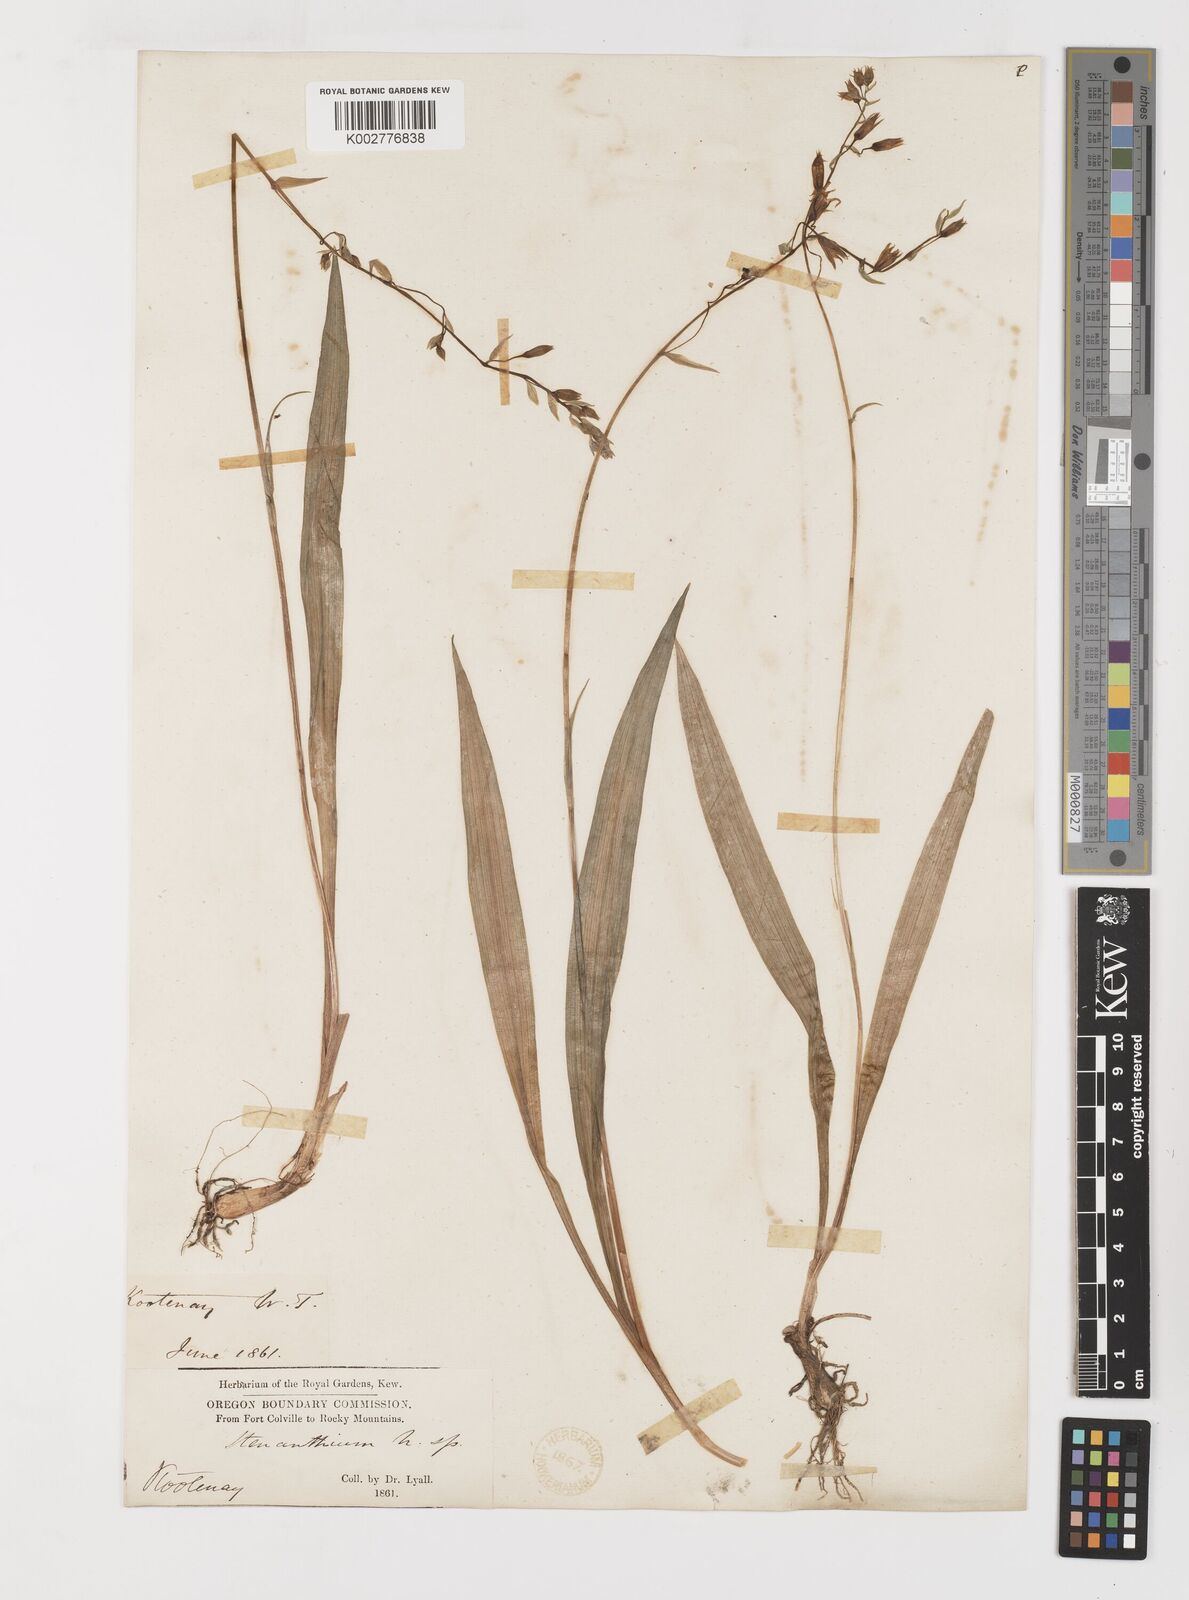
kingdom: Plantae
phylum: Tracheophyta
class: Liliopsida
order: Liliales
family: Melanthiaceae
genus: Anticlea
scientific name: Anticlea occidentalis
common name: Bronze-bells
